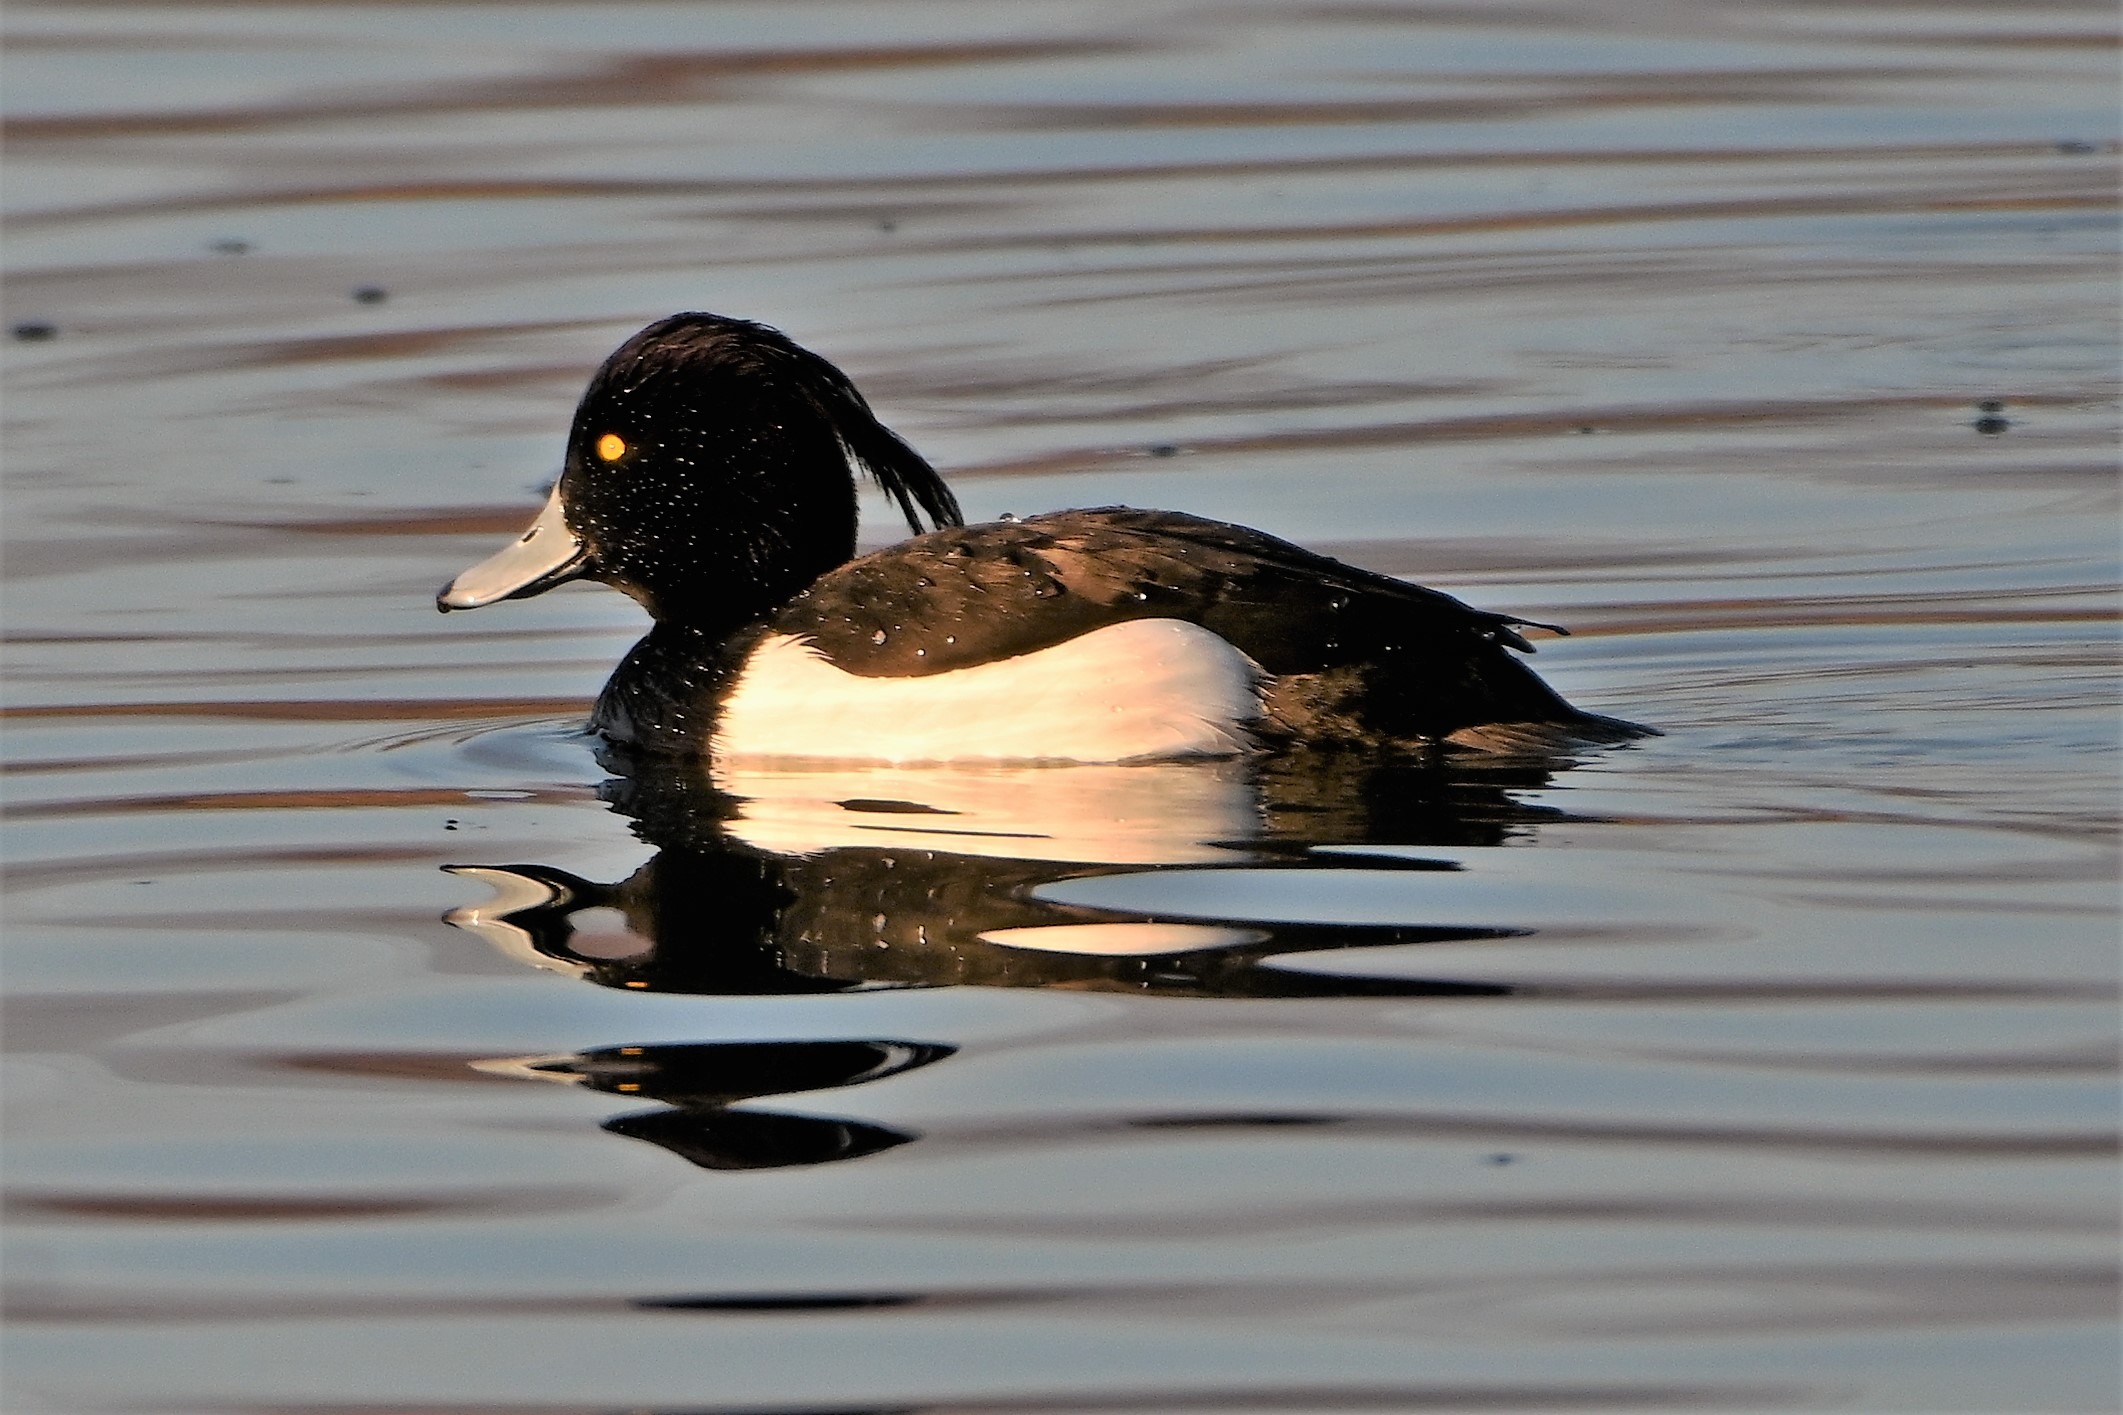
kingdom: Animalia
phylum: Chordata
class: Aves
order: Anseriformes
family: Anatidae
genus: Aythya
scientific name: Aythya fuligula
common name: Troldand
